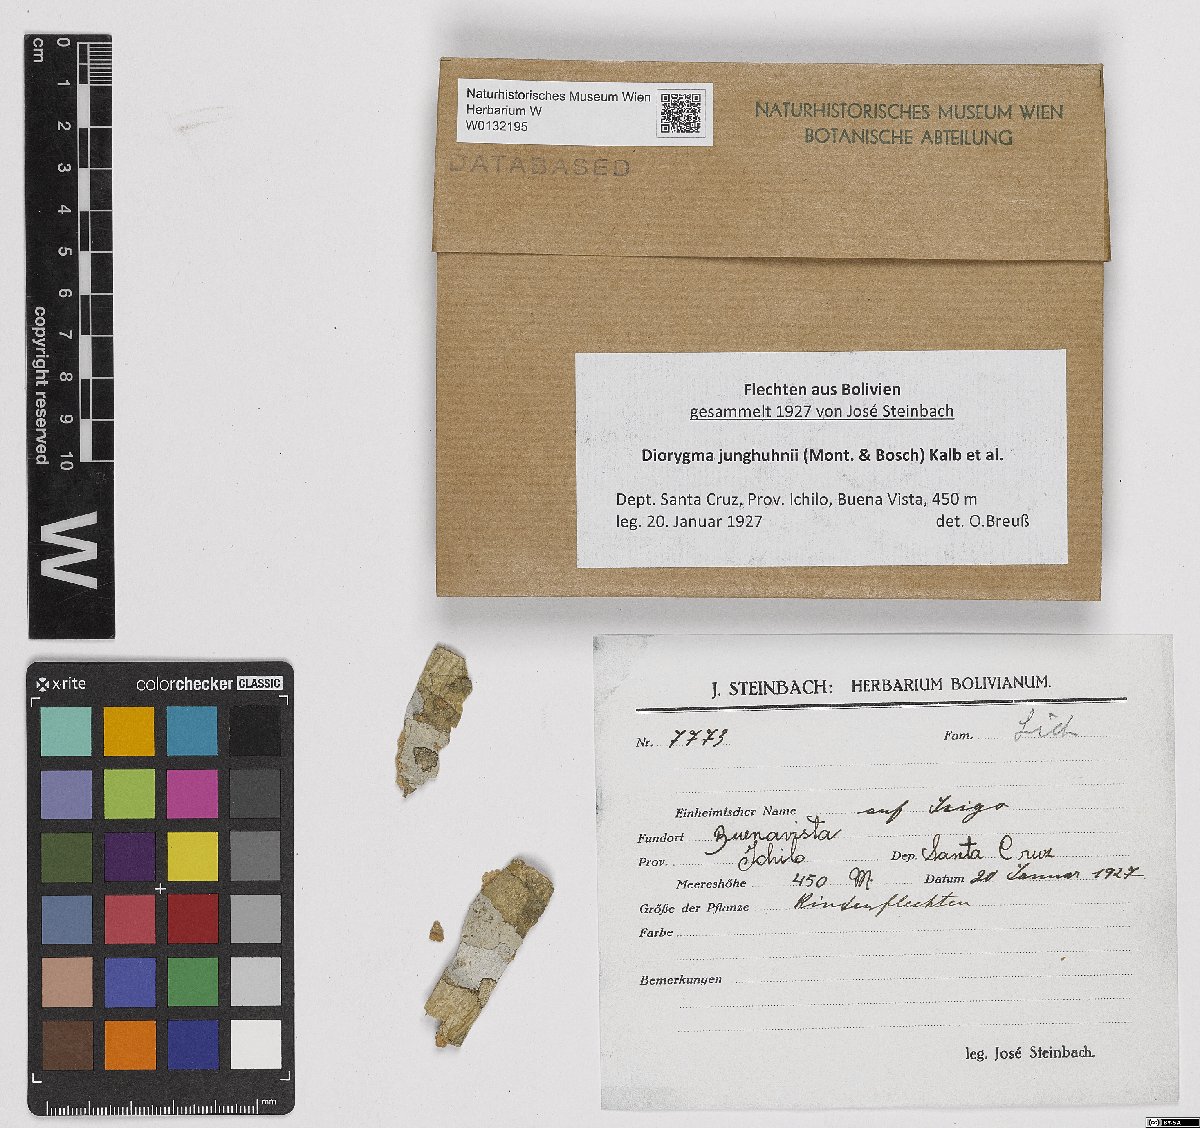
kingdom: Fungi
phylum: Ascomycota
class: Lecanoromycetes
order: Ostropales
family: Graphidaceae
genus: Diorygma
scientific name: Diorygma junghuhnii
